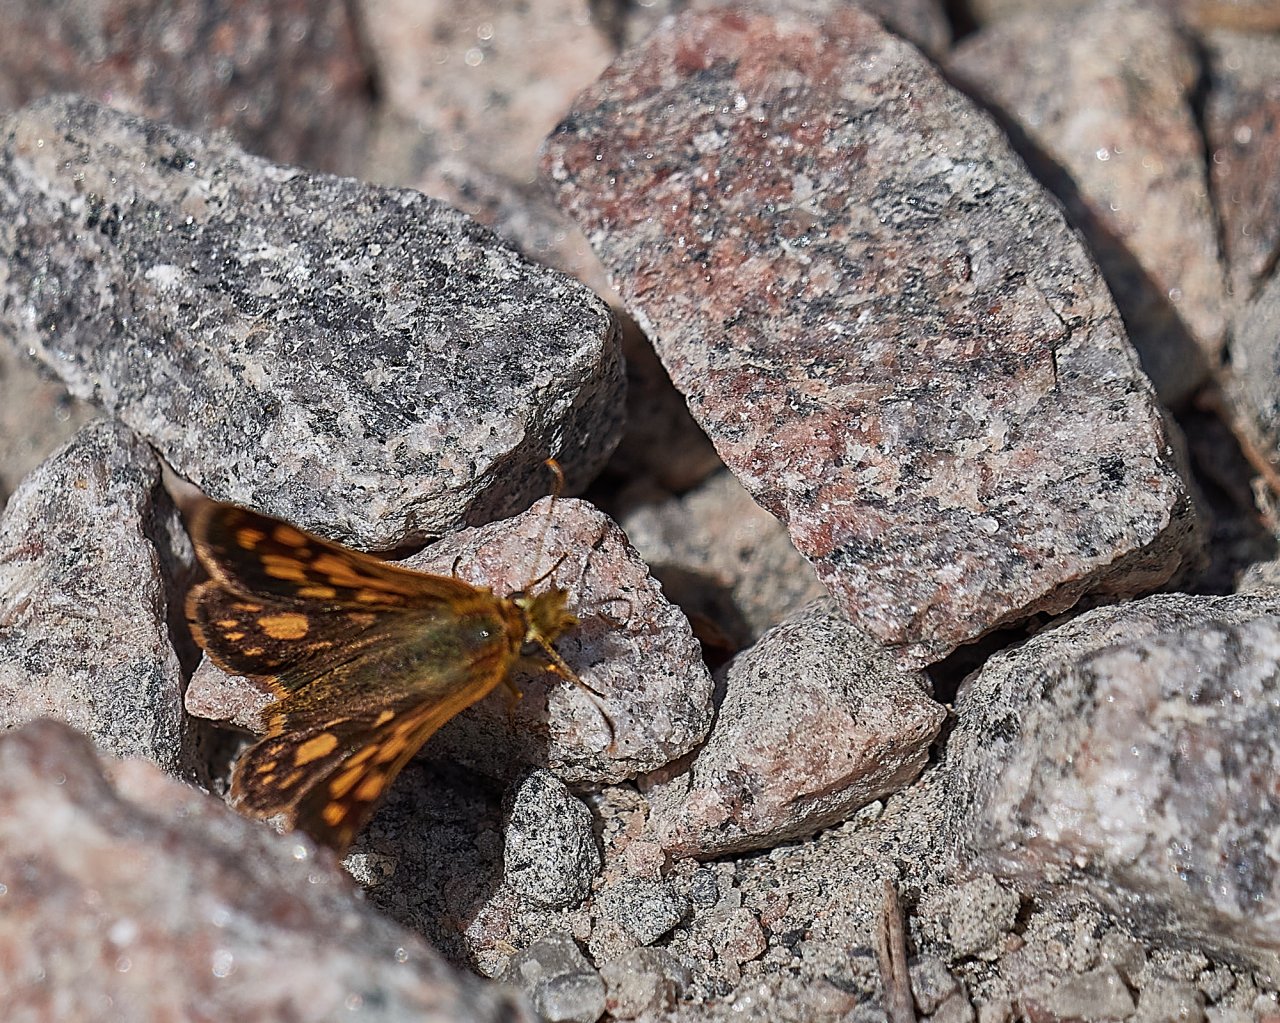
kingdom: Animalia
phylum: Arthropoda
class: Insecta
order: Lepidoptera
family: Hesperiidae
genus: Carterocephalus
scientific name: Carterocephalus palaemon
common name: Chequered Skipper
